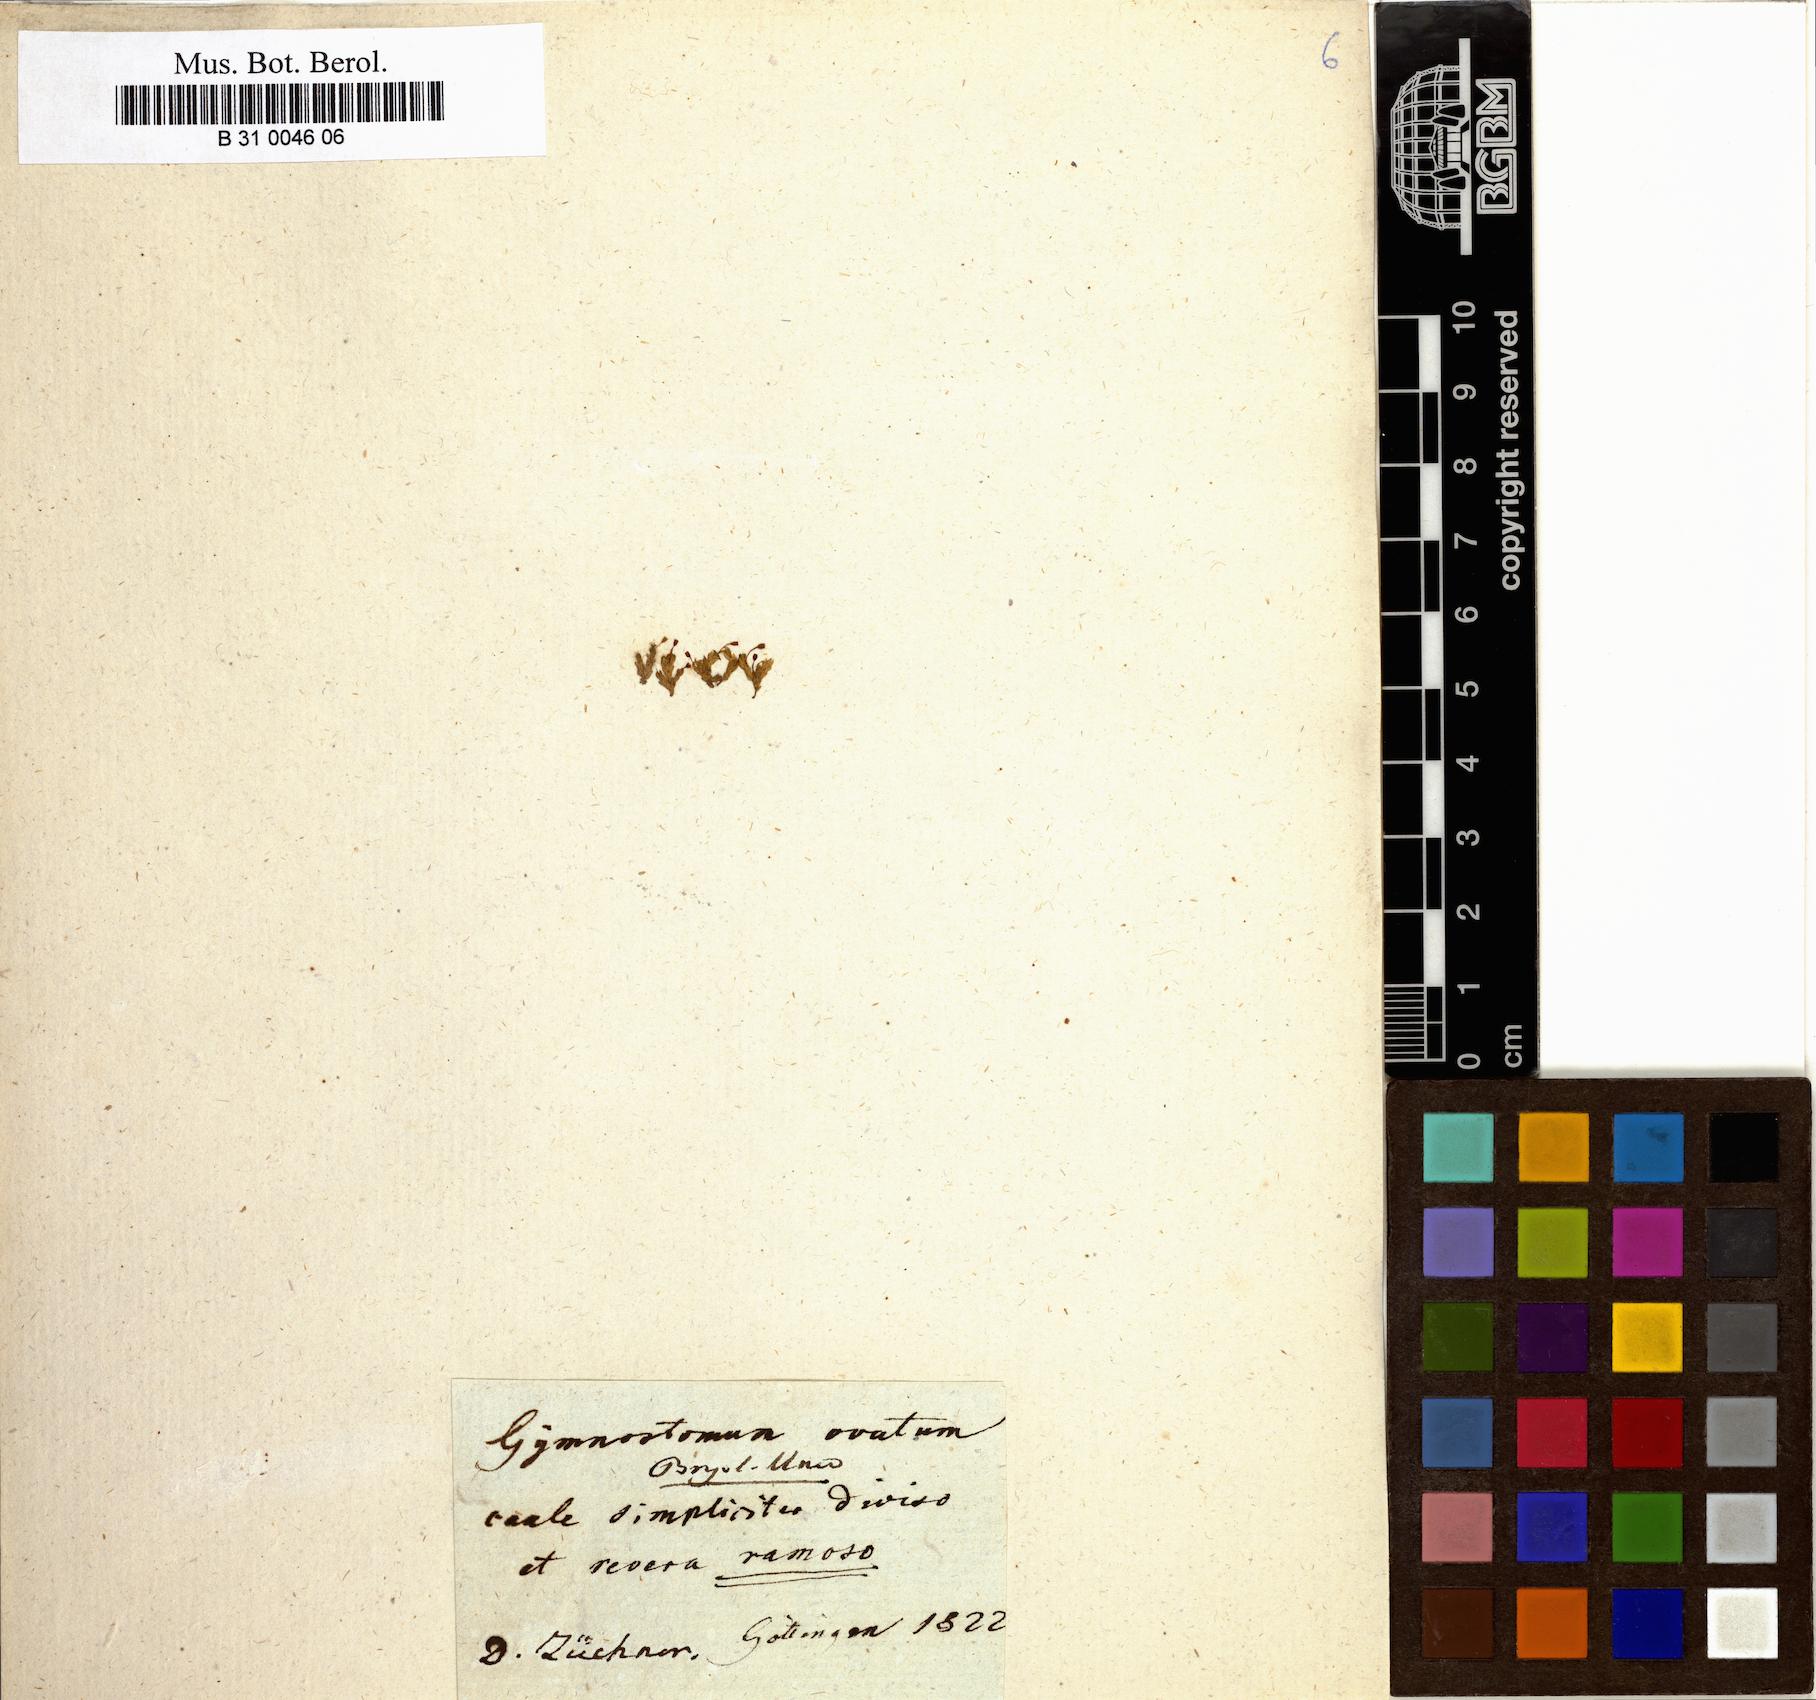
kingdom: Plantae
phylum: Bryophyta
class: Bryopsida
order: Pottiales
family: Pottiaceae
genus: Pterygoneurum
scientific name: Pterygoneurum ovatum
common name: Ovate pterygoneurum
